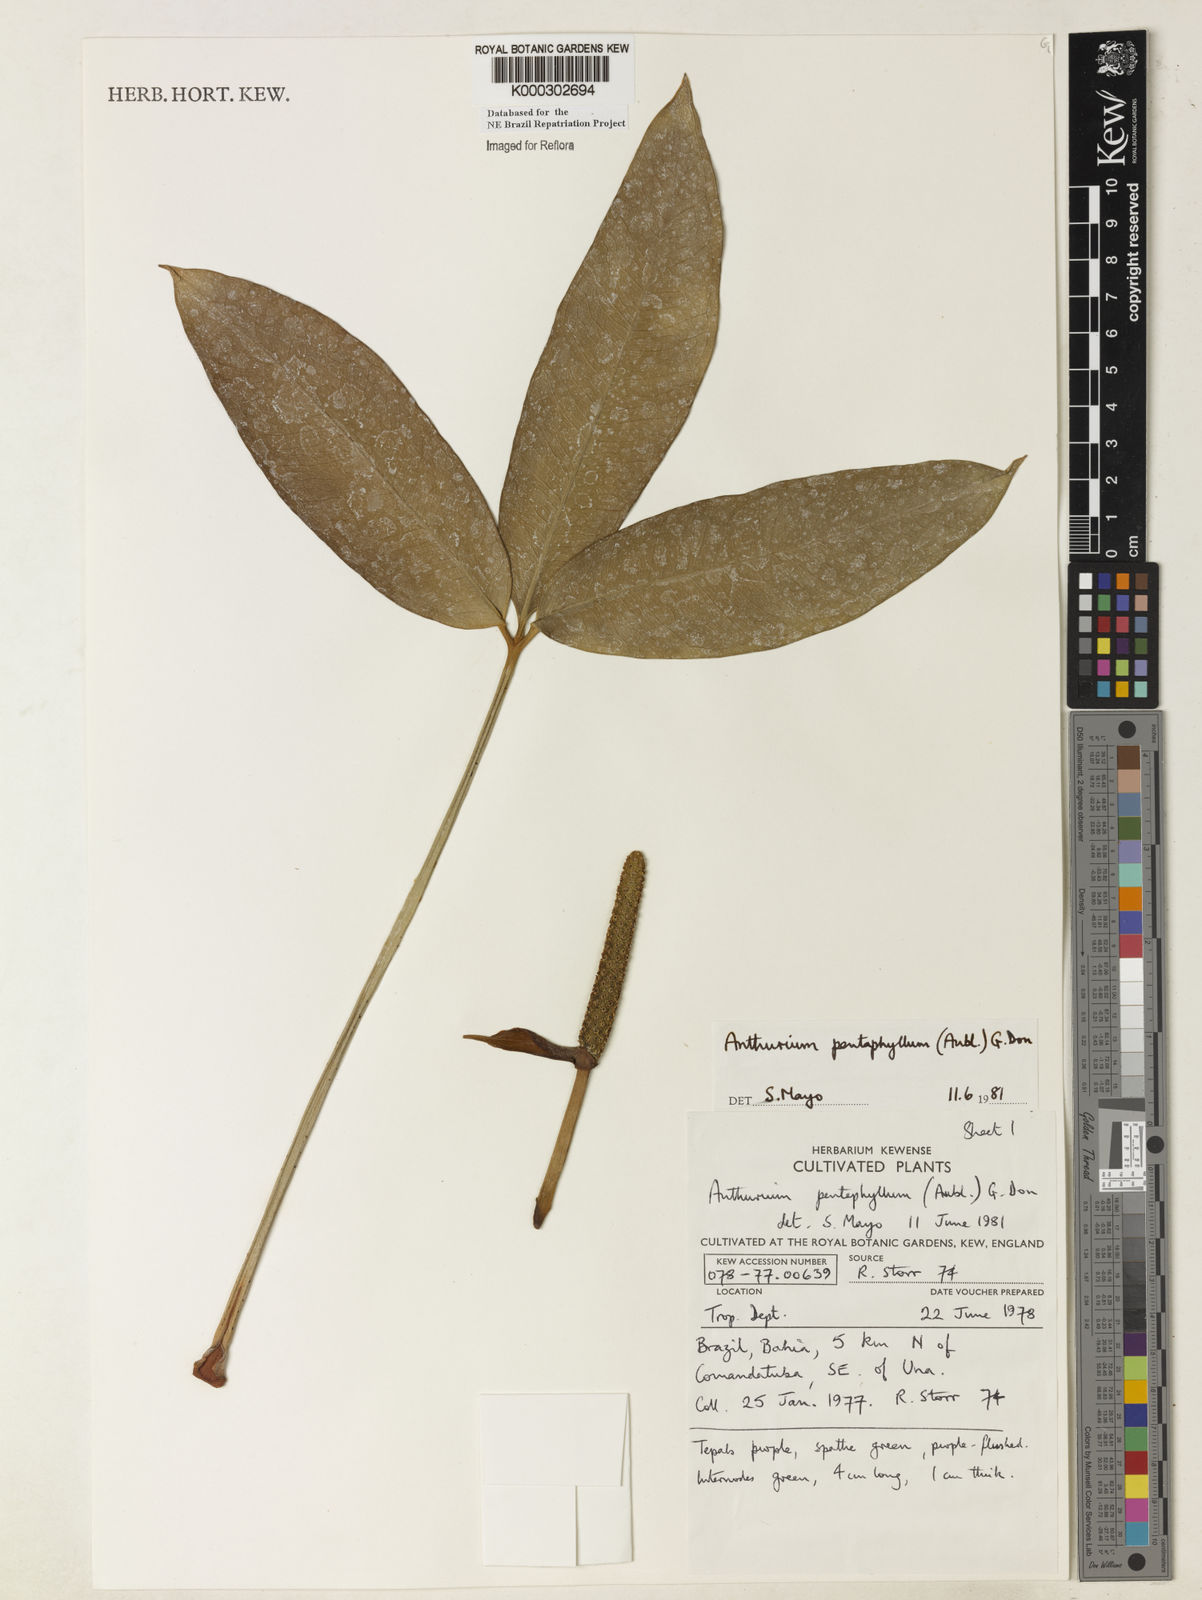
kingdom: Plantae
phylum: Tracheophyta
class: Liliopsida
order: Alismatales
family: Araceae
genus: Anthurium
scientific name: Anthurium pentaphyllum
